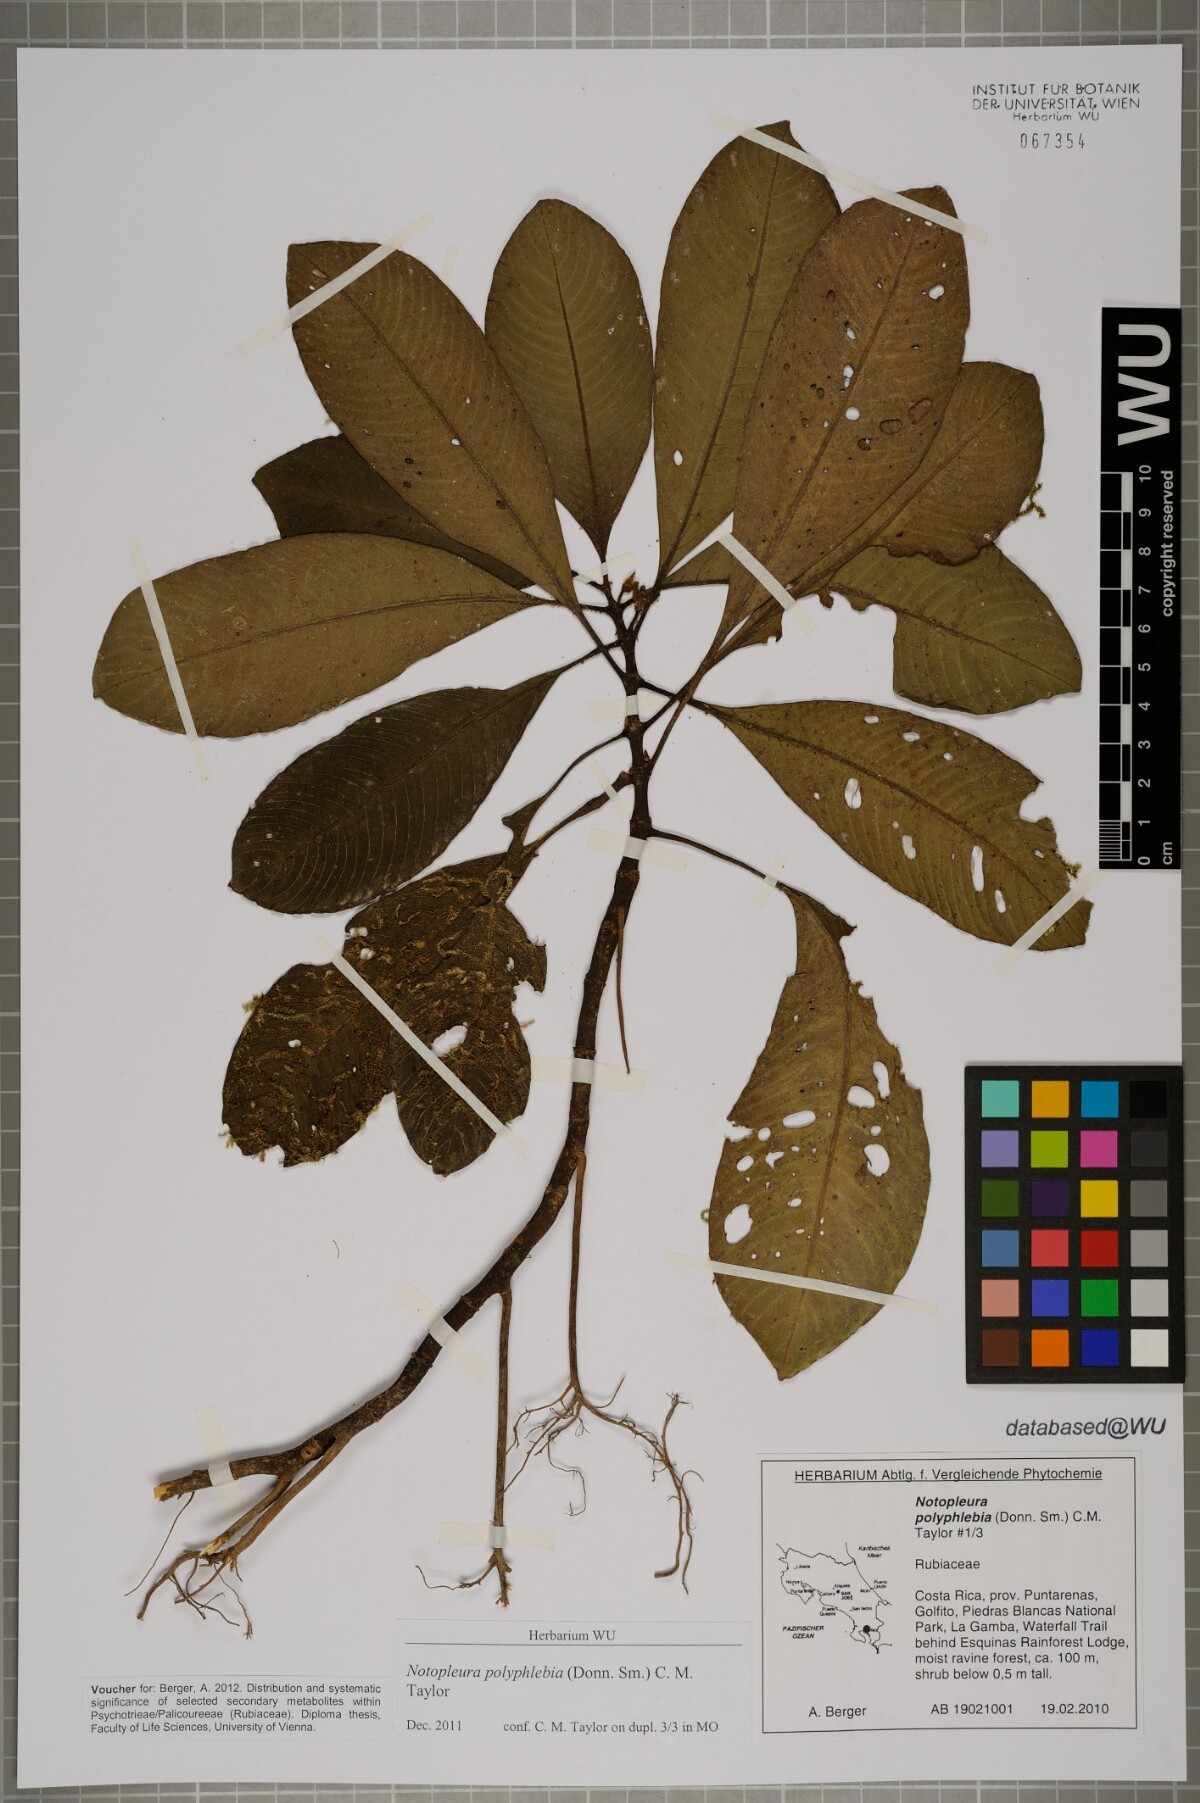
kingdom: Plantae
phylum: Tracheophyta
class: Magnoliopsida
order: Gentianales
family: Rubiaceae
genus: Notopleura
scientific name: Notopleura polyphlebia
